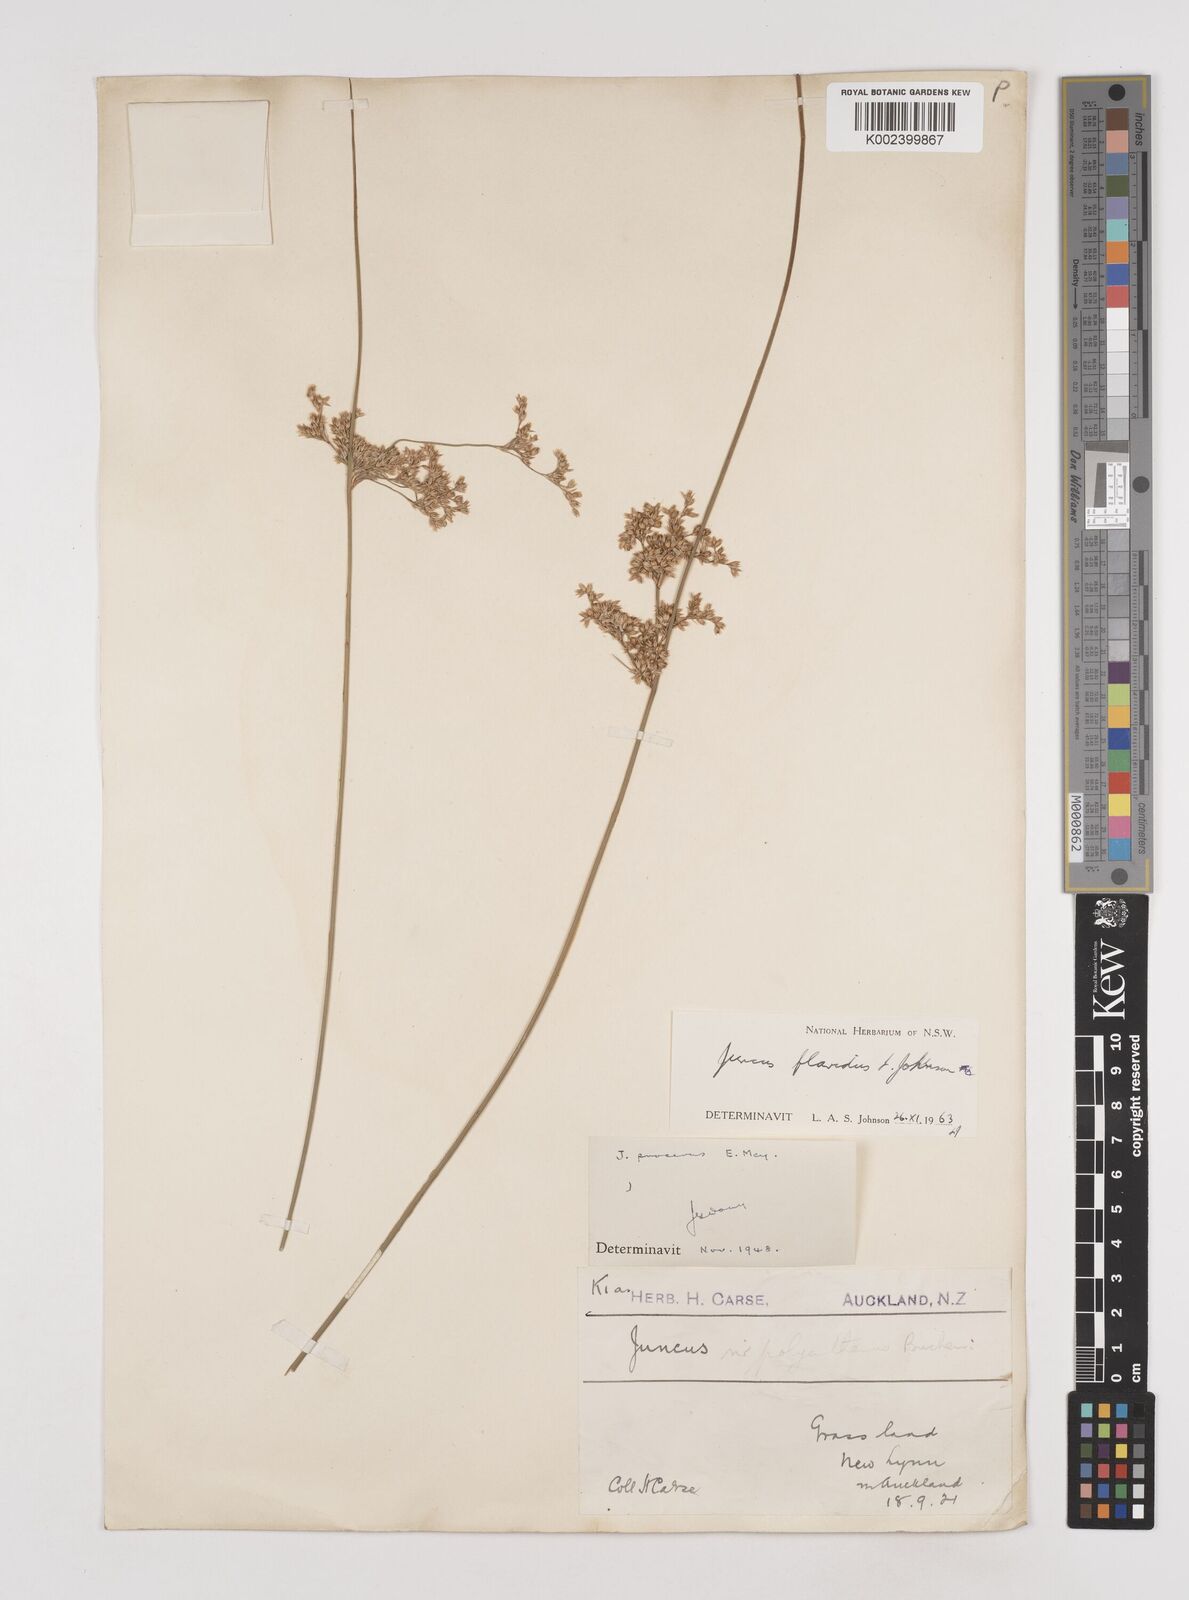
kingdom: Plantae
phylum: Tracheophyta
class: Liliopsida
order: Poales
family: Juncaceae
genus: Juncus
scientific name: Juncus flavidus
